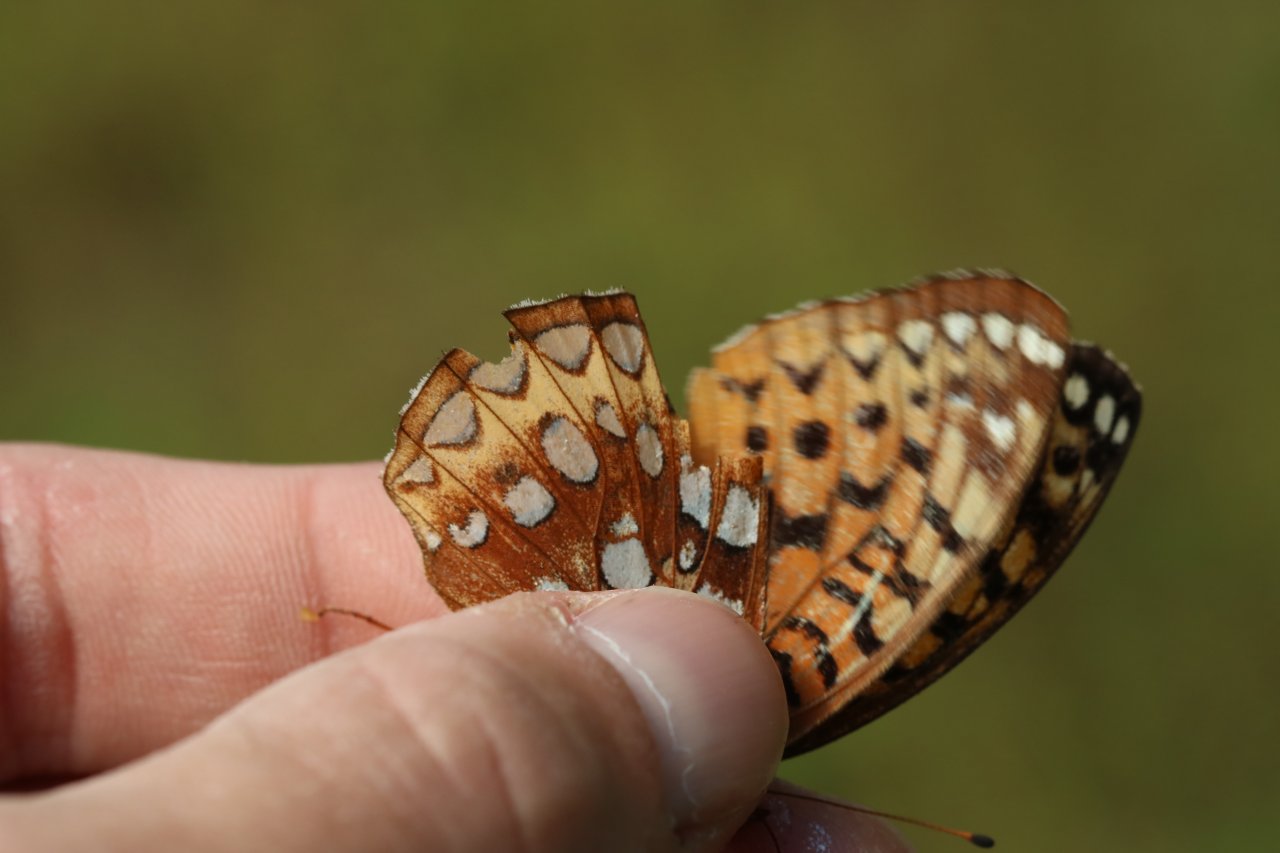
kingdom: Animalia
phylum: Arthropoda
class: Insecta
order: Lepidoptera
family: Nymphalidae
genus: Speyeria
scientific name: Speyeria cybele
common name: Great Spangled Fritillary
